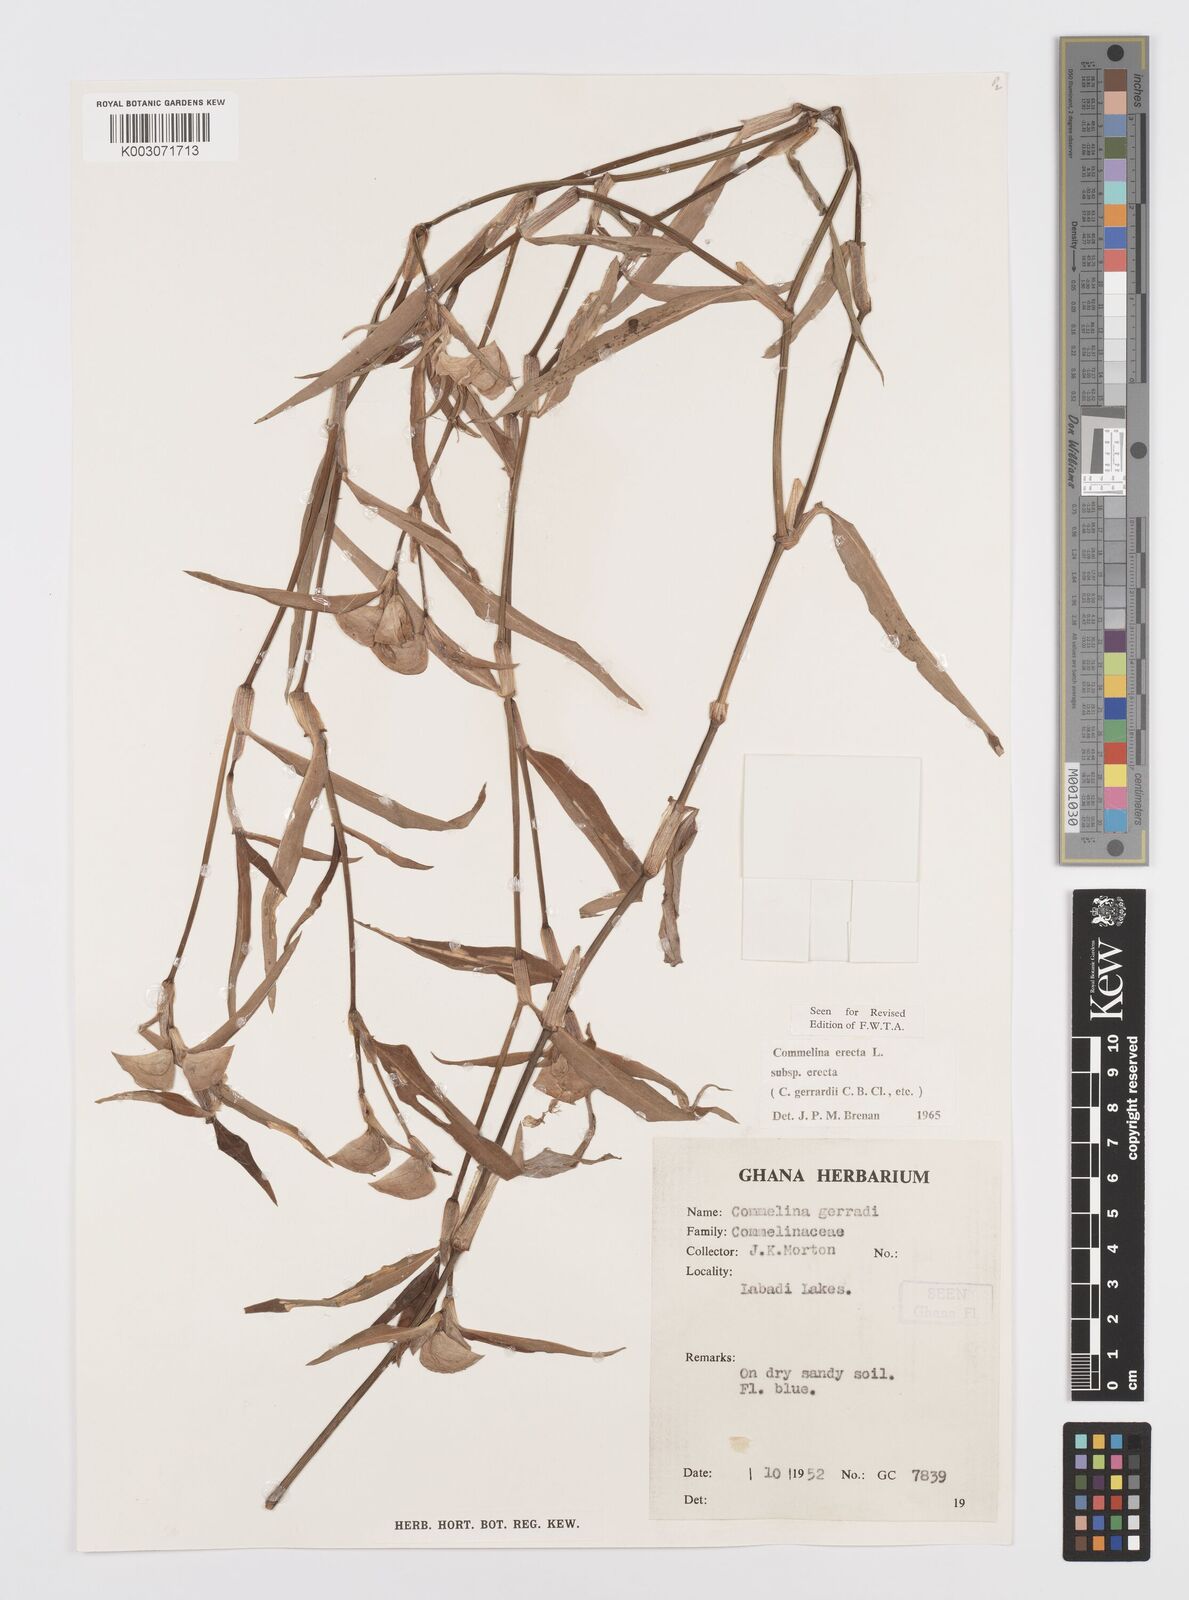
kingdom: Plantae
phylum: Tracheophyta
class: Liliopsida
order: Commelinales
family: Commelinaceae
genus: Commelina
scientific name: Commelina erecta
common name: Blousel blommetjie
